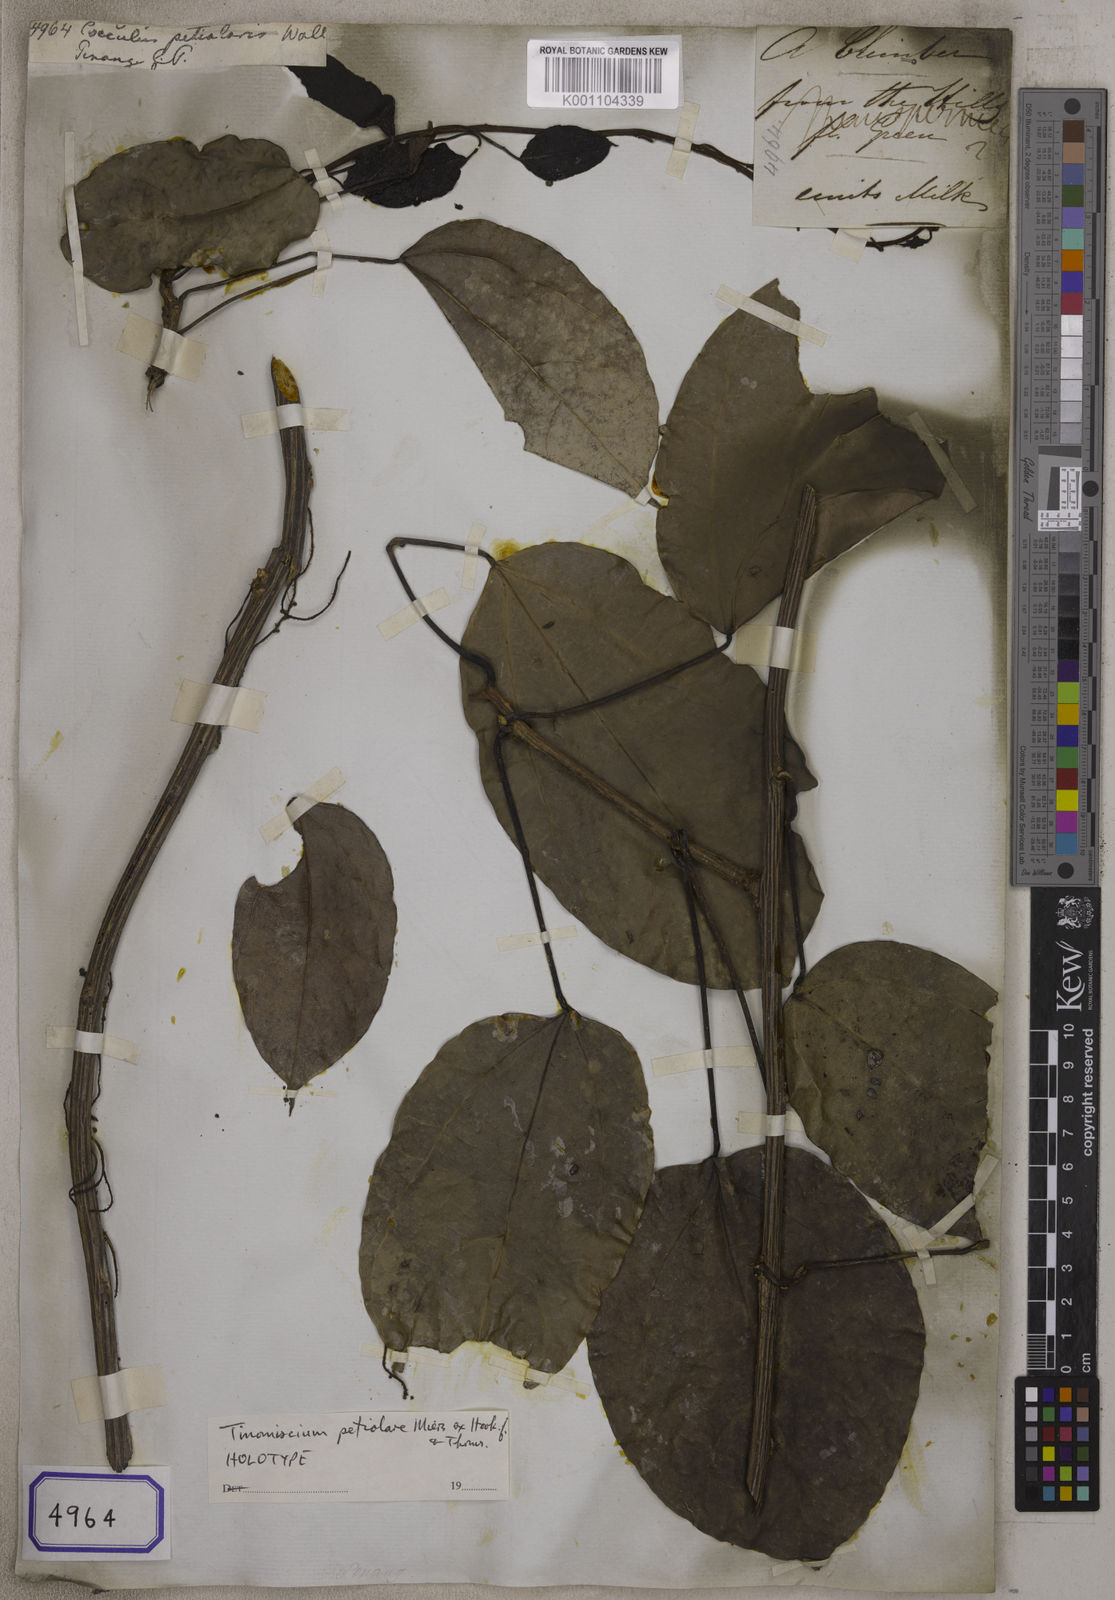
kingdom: Plantae
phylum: Tracheophyta
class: Magnoliopsida
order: Ranunculales
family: Menispermaceae
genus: Tinomiscium
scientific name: Tinomiscium petiolare
